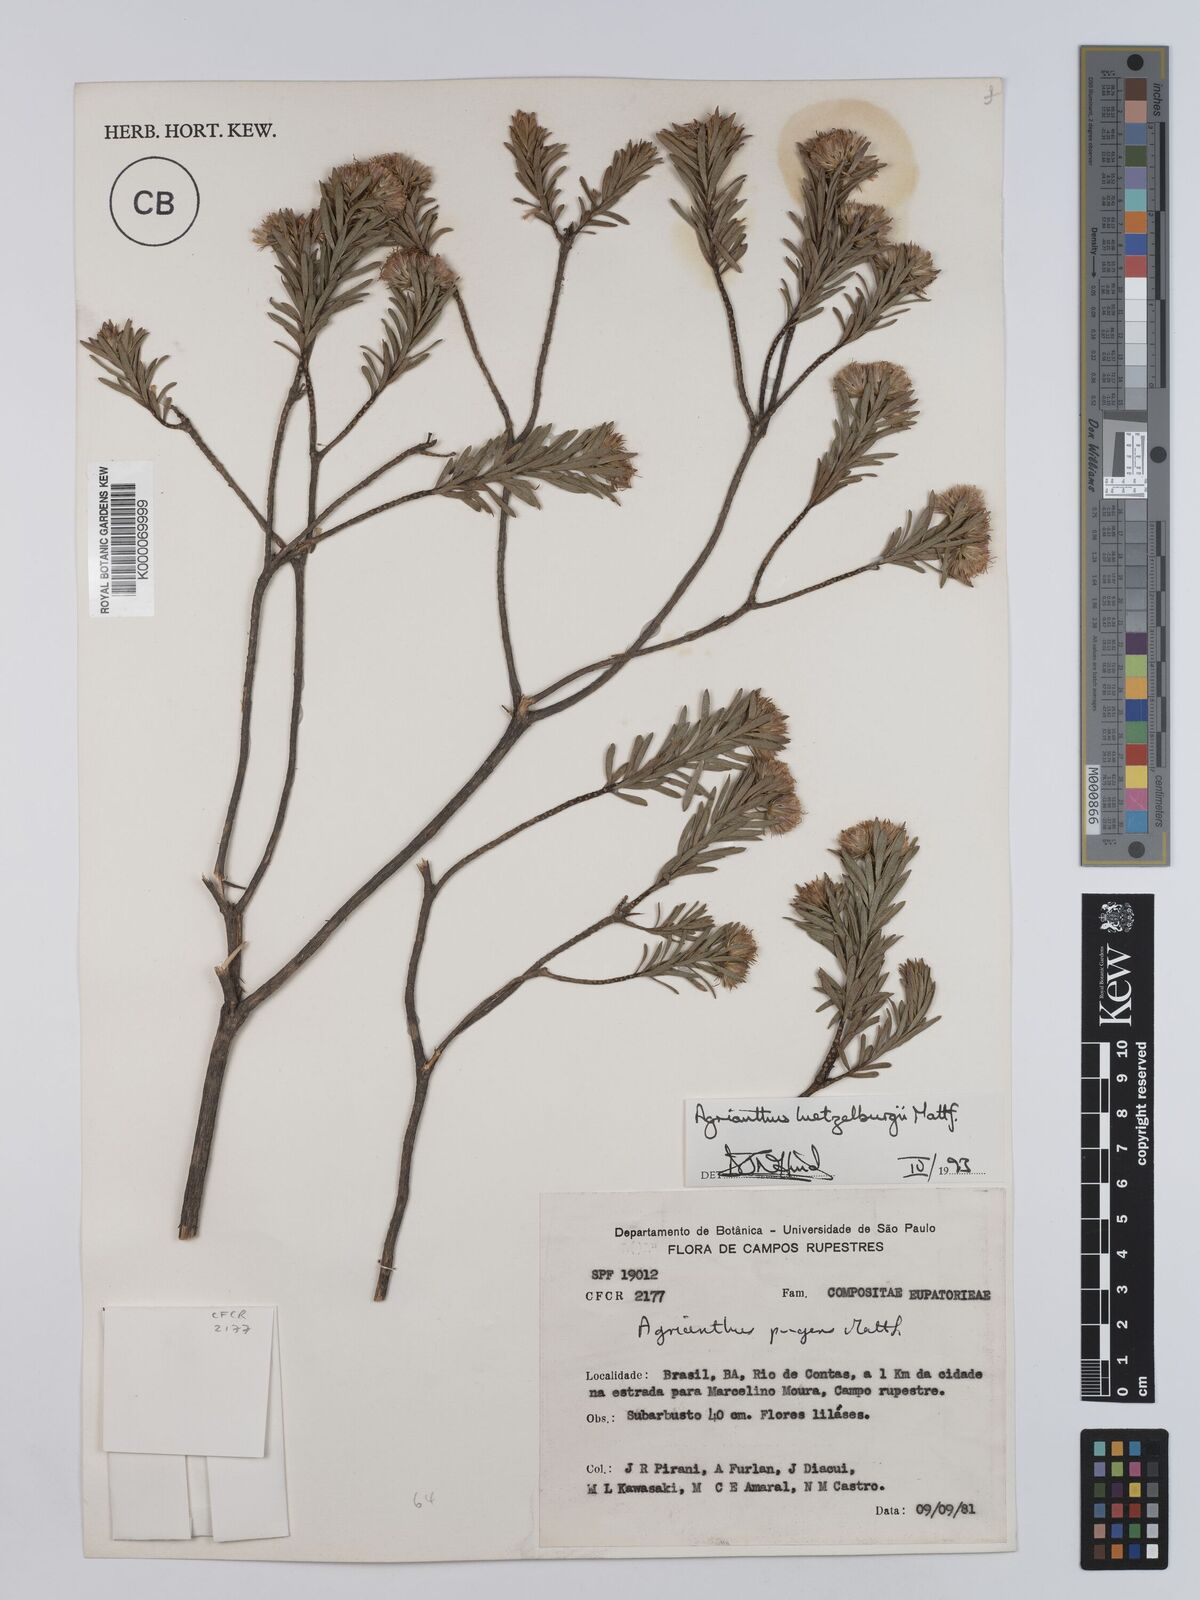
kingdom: Plantae
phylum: Tracheophyta
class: Magnoliopsida
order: Asterales
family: Asteraceae
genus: Agrianthus
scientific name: Agrianthus
